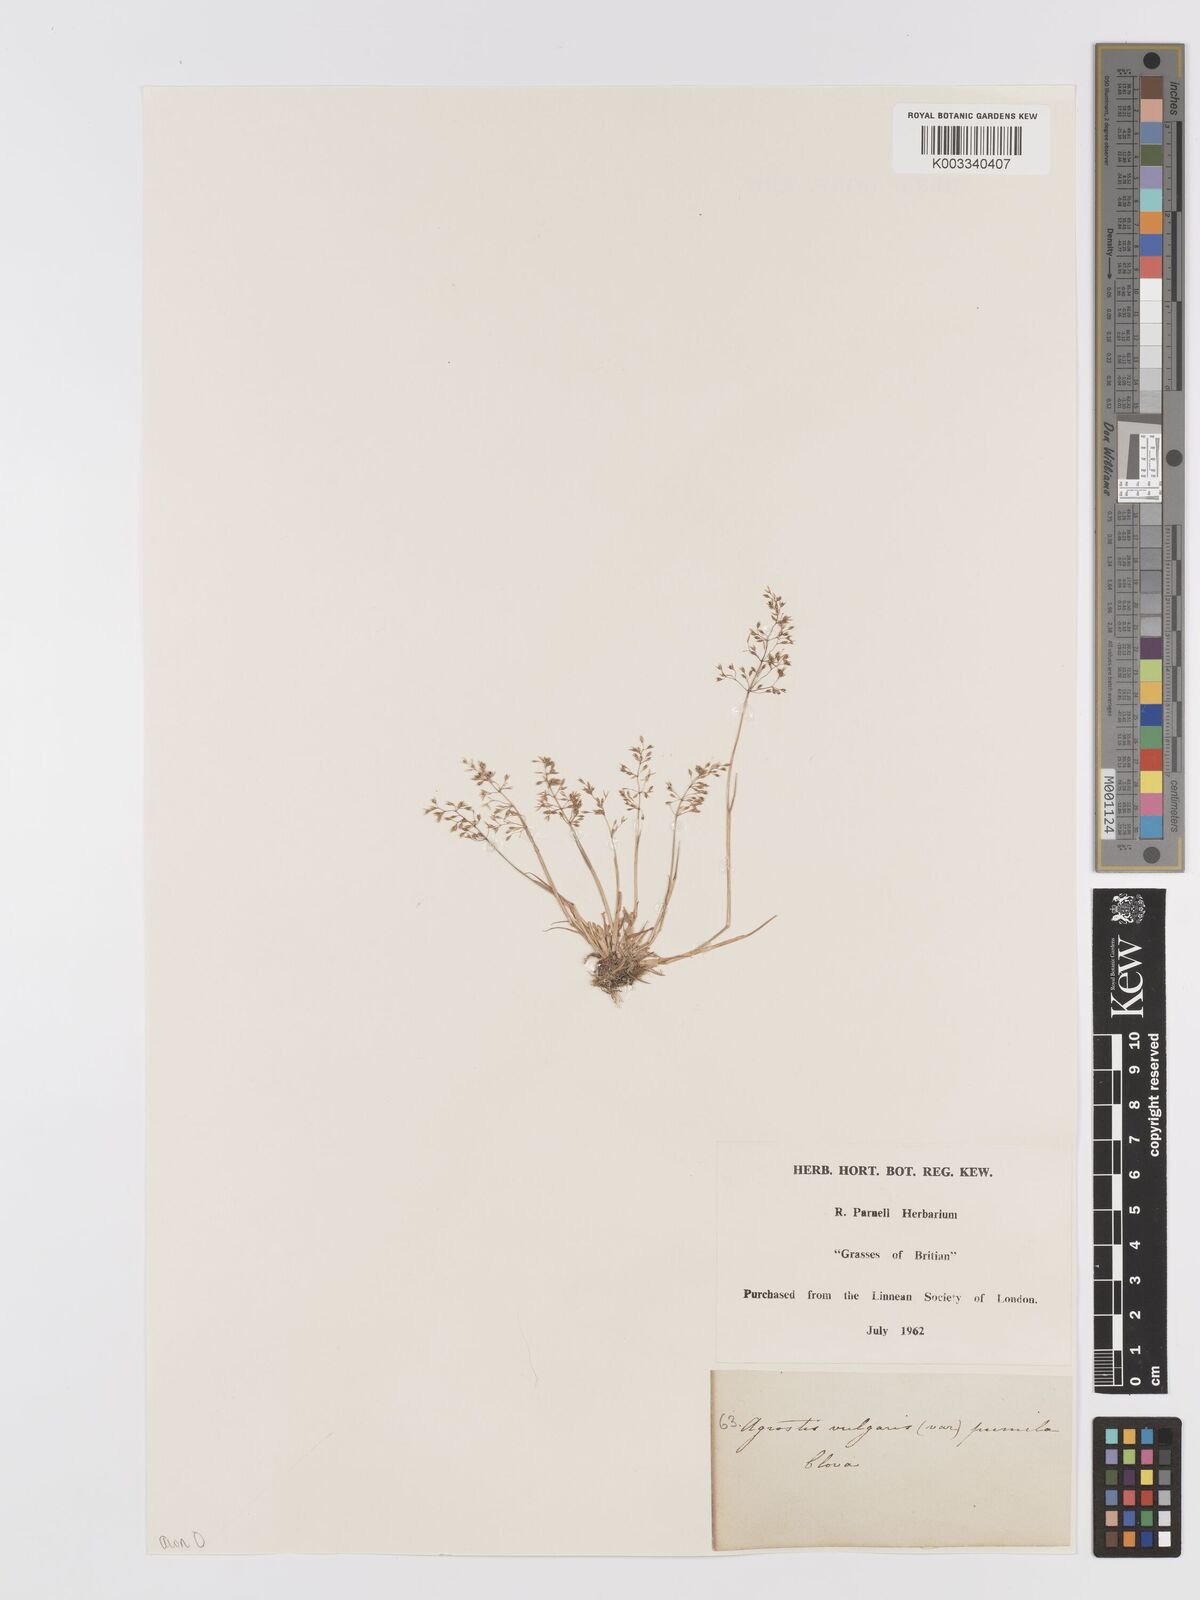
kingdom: Plantae
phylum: Tracheophyta
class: Liliopsida
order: Poales
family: Poaceae
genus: Agrostis
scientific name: Agrostis capillaris
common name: Colonial bentgrass
